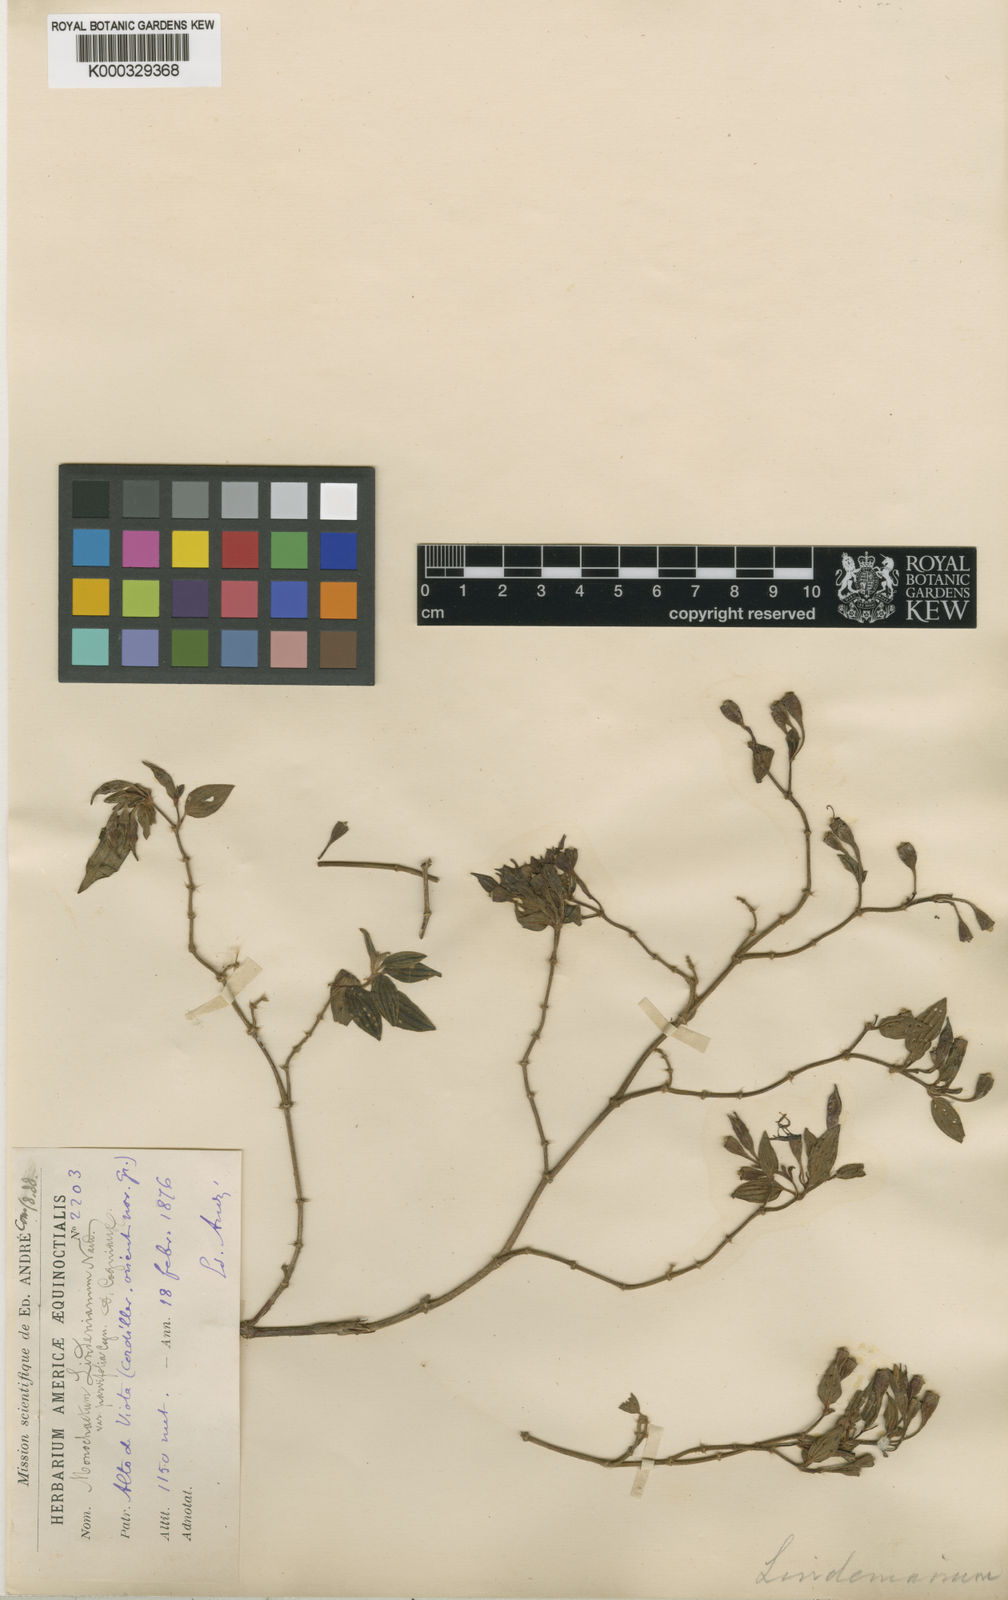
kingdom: Plantae
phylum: Tracheophyta
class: Magnoliopsida
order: Myrtales
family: Melastomataceae
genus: Monochaetum
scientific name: Monochaetum
